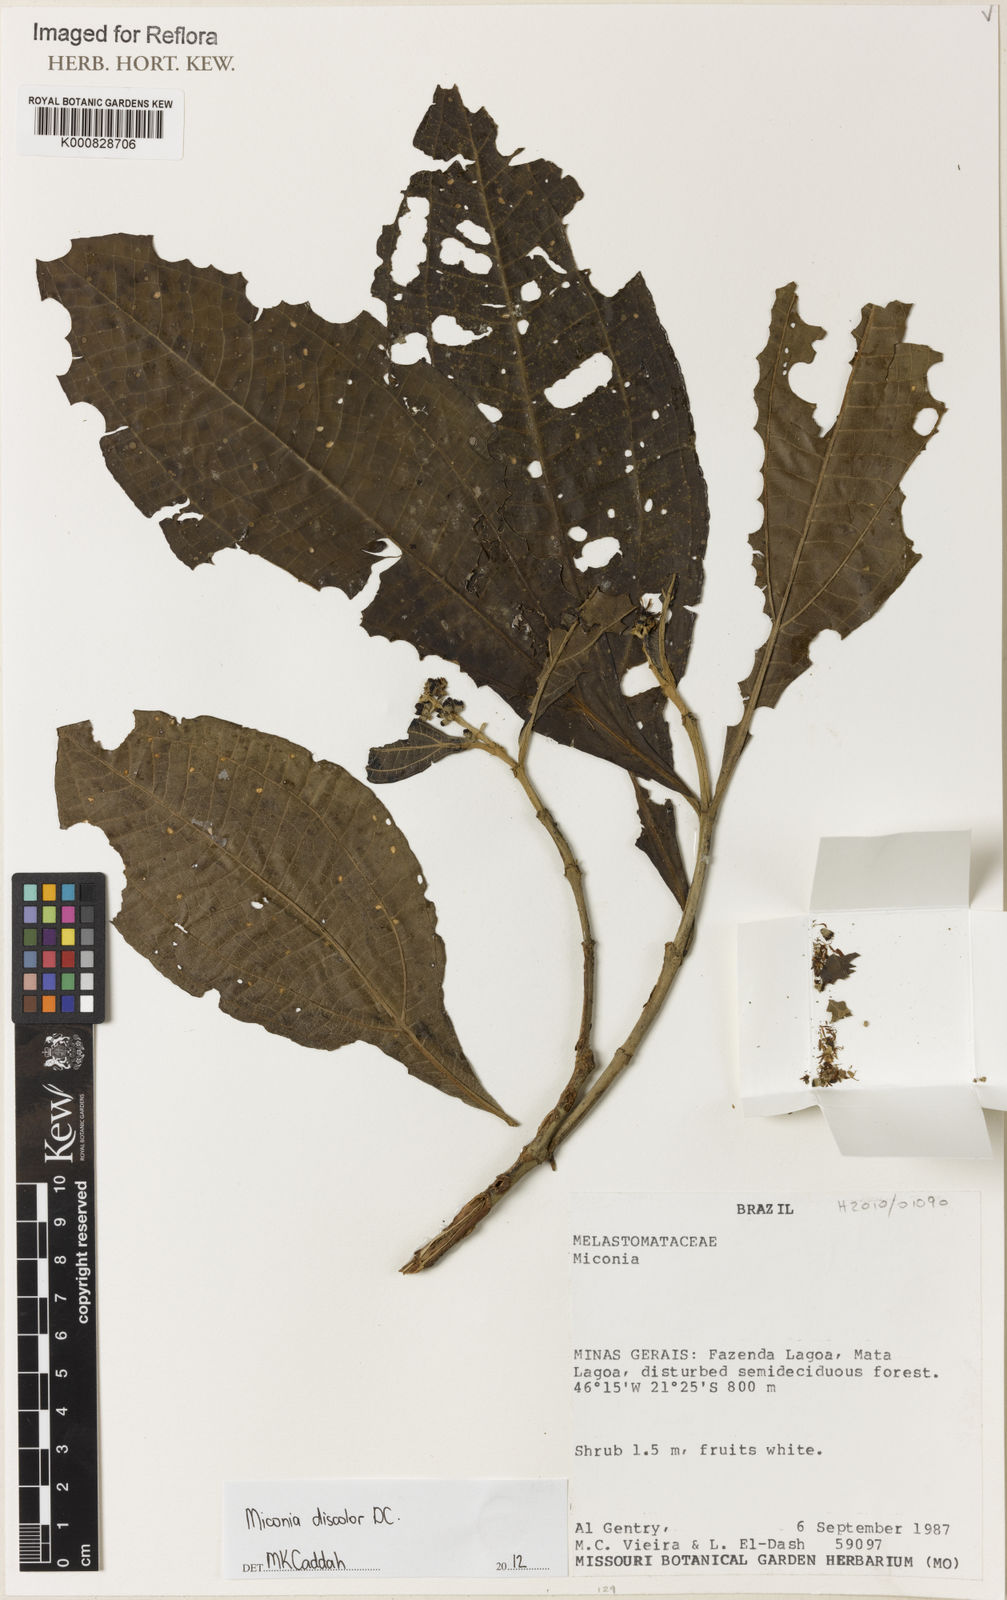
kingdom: Plantae
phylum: Tracheophyta
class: Magnoliopsida
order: Myrtales
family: Melastomataceae
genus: Miconia
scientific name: Miconia discolor
